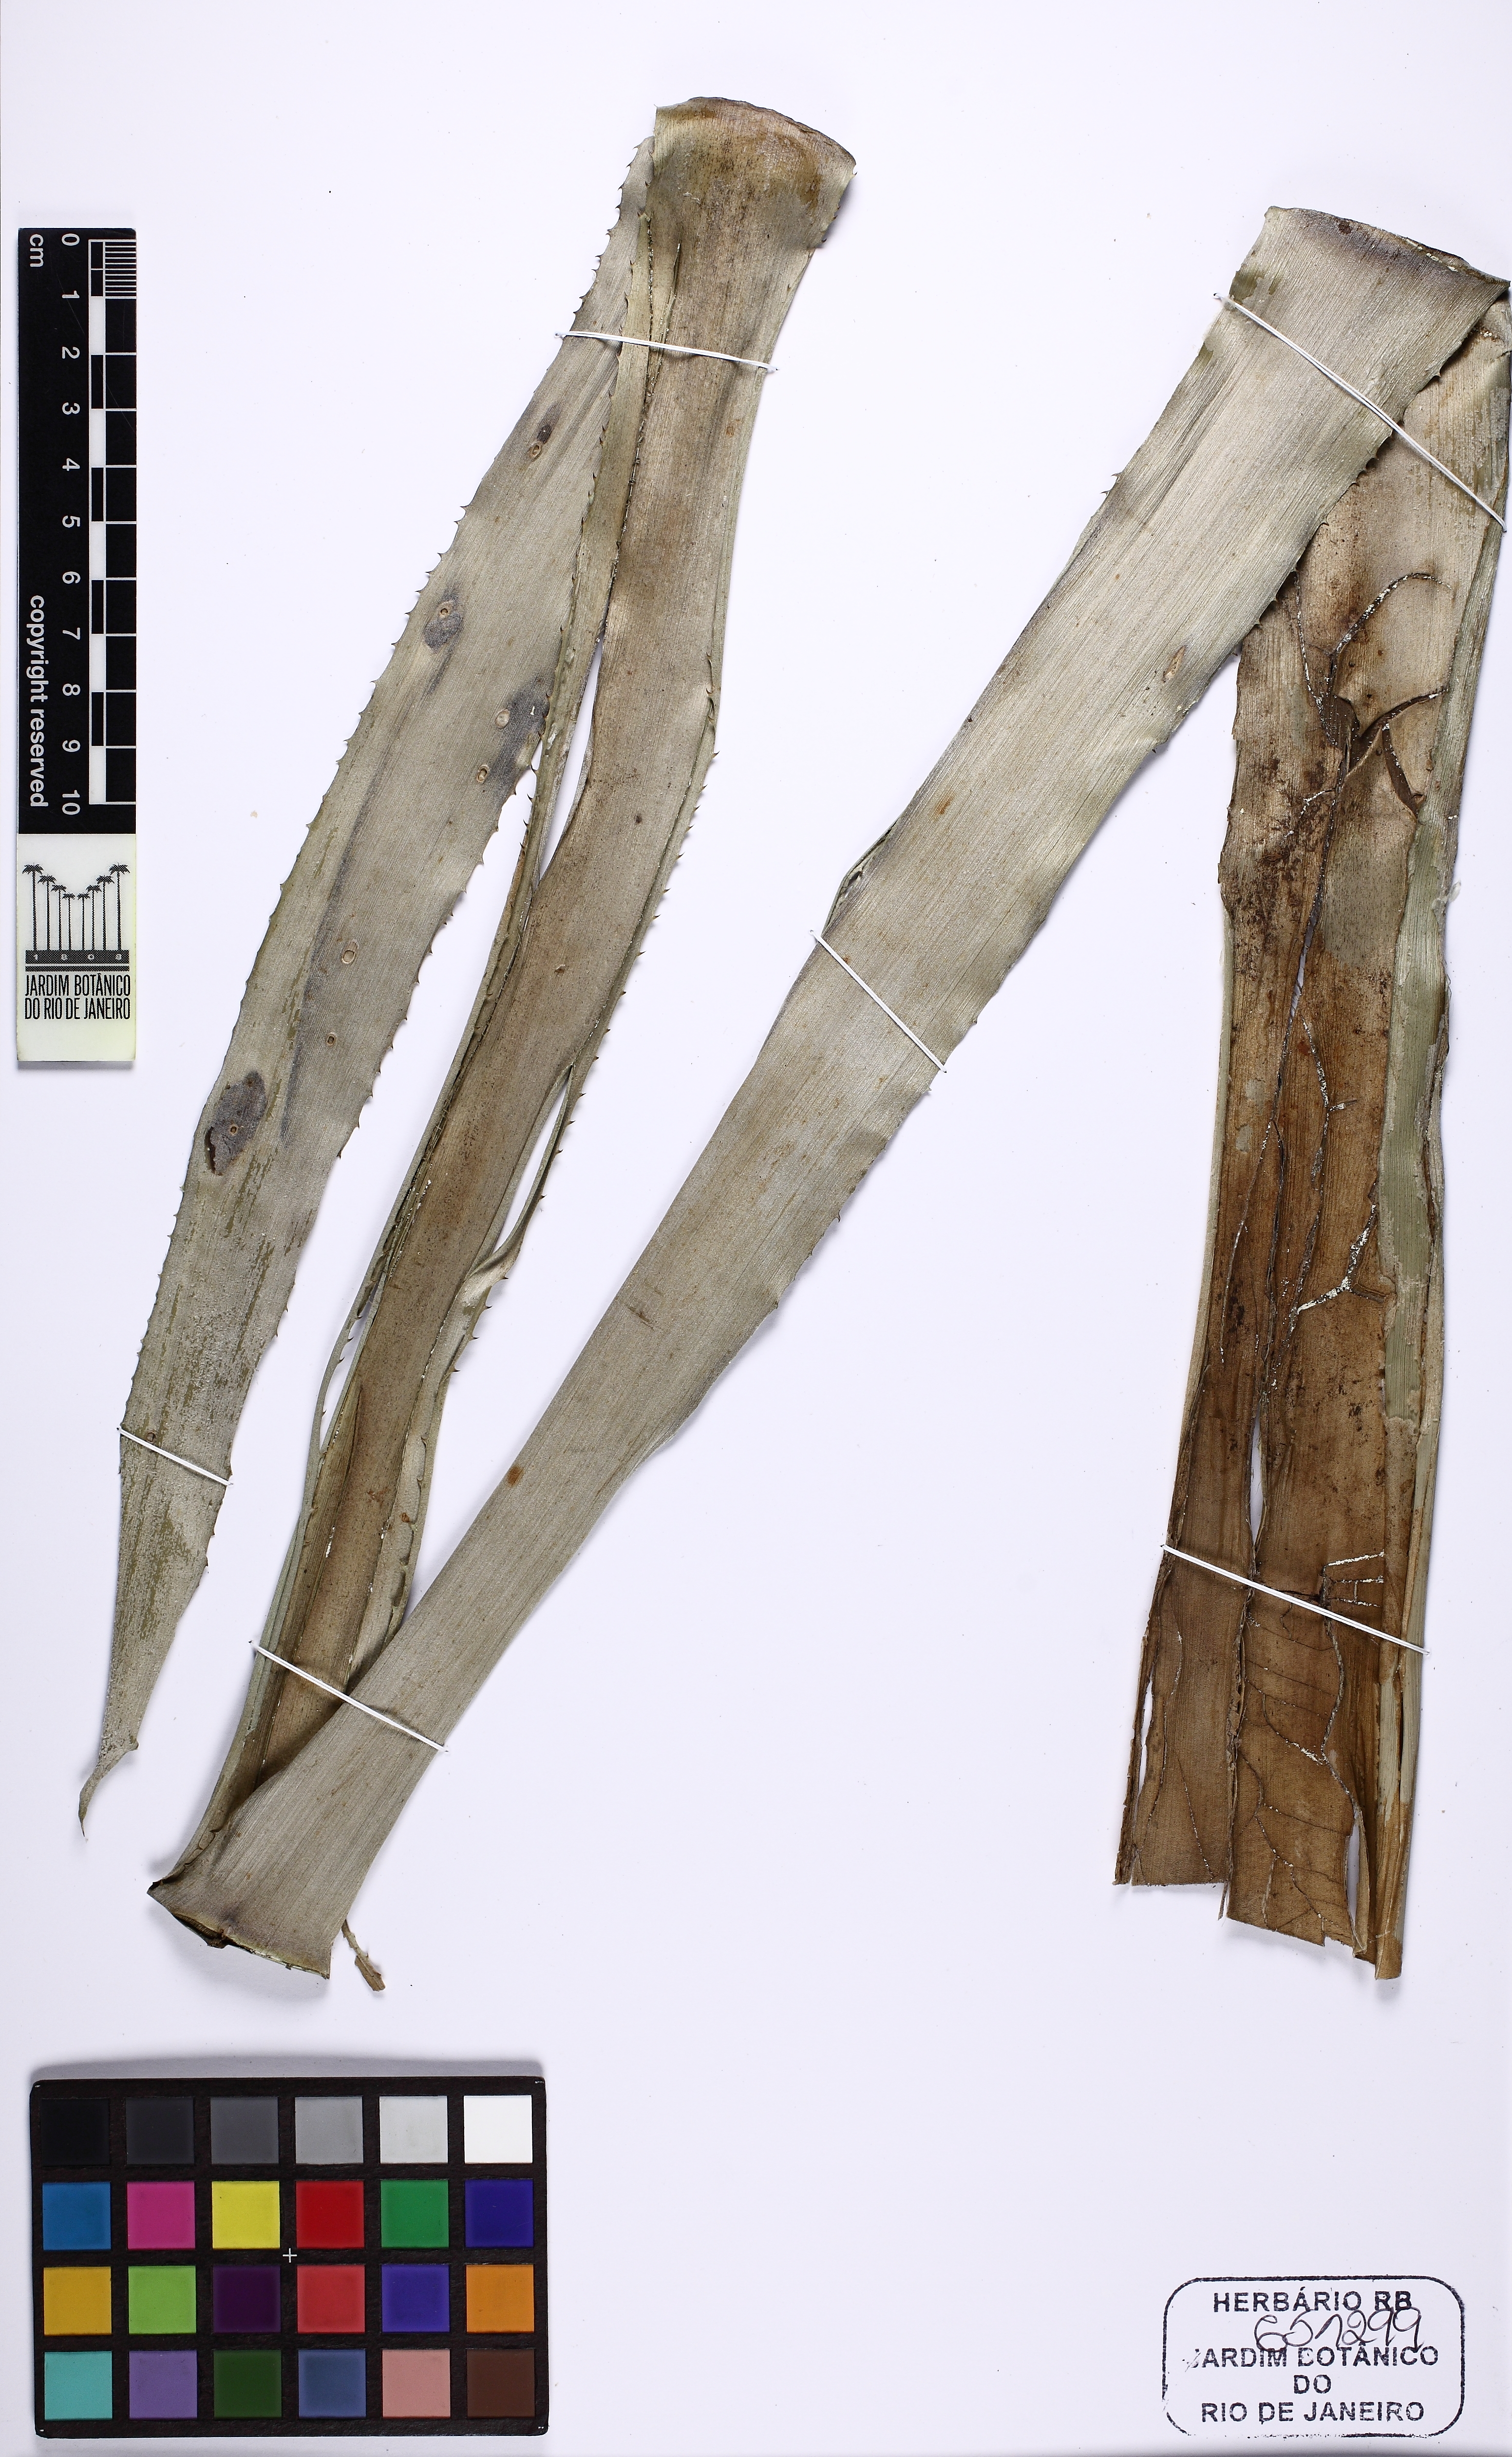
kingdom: Plantae
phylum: Tracheophyta
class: Liliopsida
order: Poales
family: Bromeliaceae
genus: Aechmea
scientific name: Aechmea pineliana
